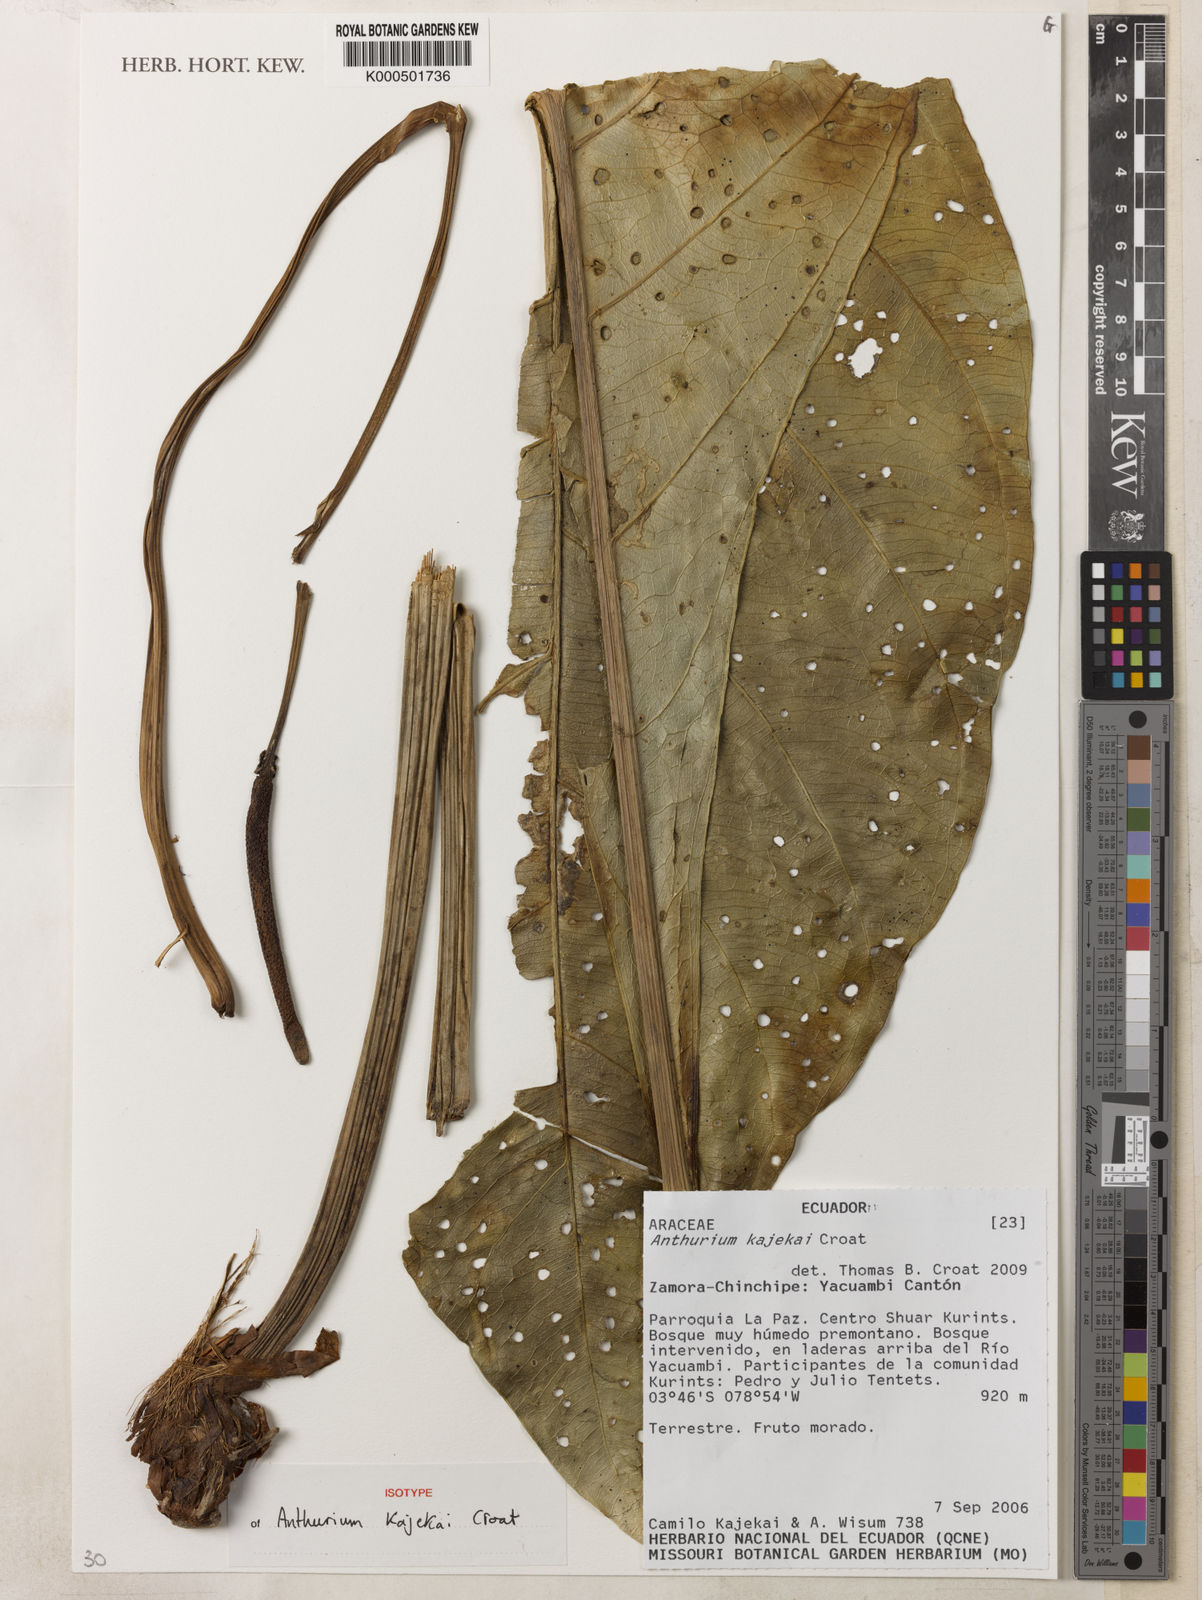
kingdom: Plantae
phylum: Tracheophyta
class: Liliopsida
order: Alismatales
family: Araceae
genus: Anthurium
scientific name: Anthurium kajekaii
